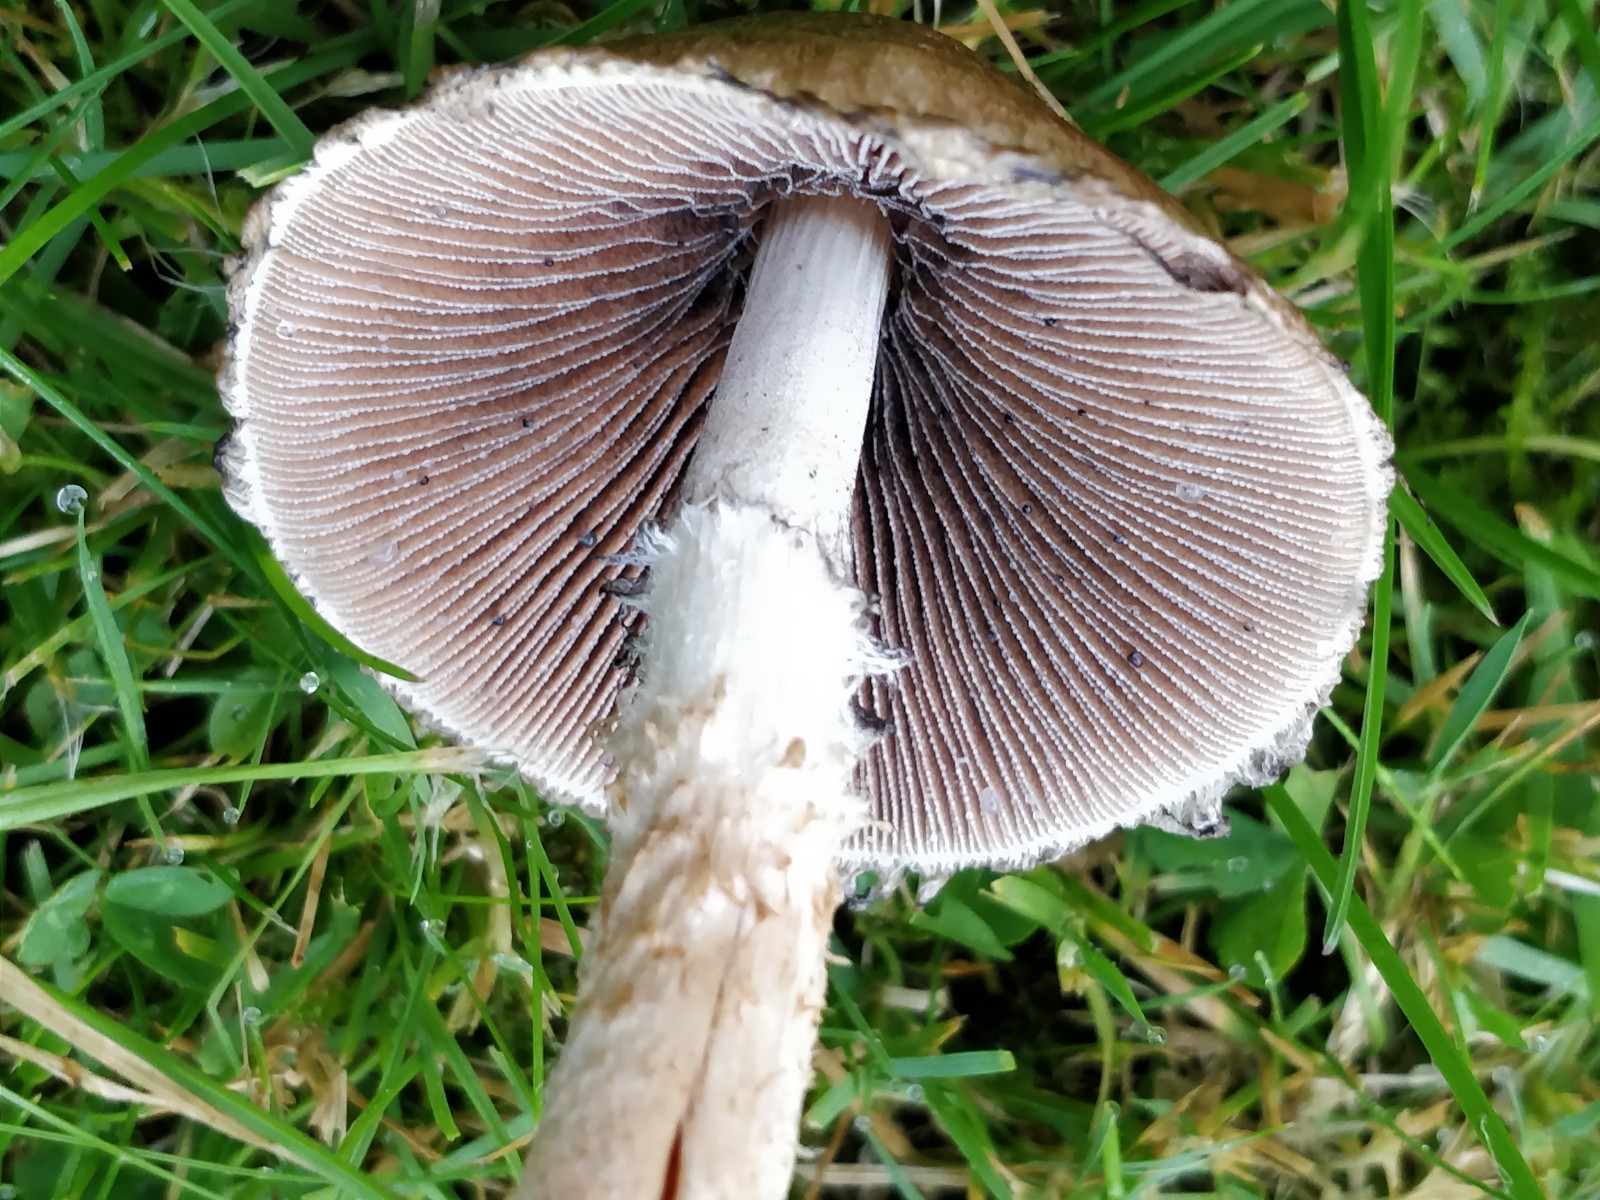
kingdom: Fungi
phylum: Basidiomycota
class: Agaricomycetes
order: Agaricales
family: Psathyrellaceae
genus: Lacrymaria
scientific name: Lacrymaria lacrymabunda
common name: grædende mørkhat
